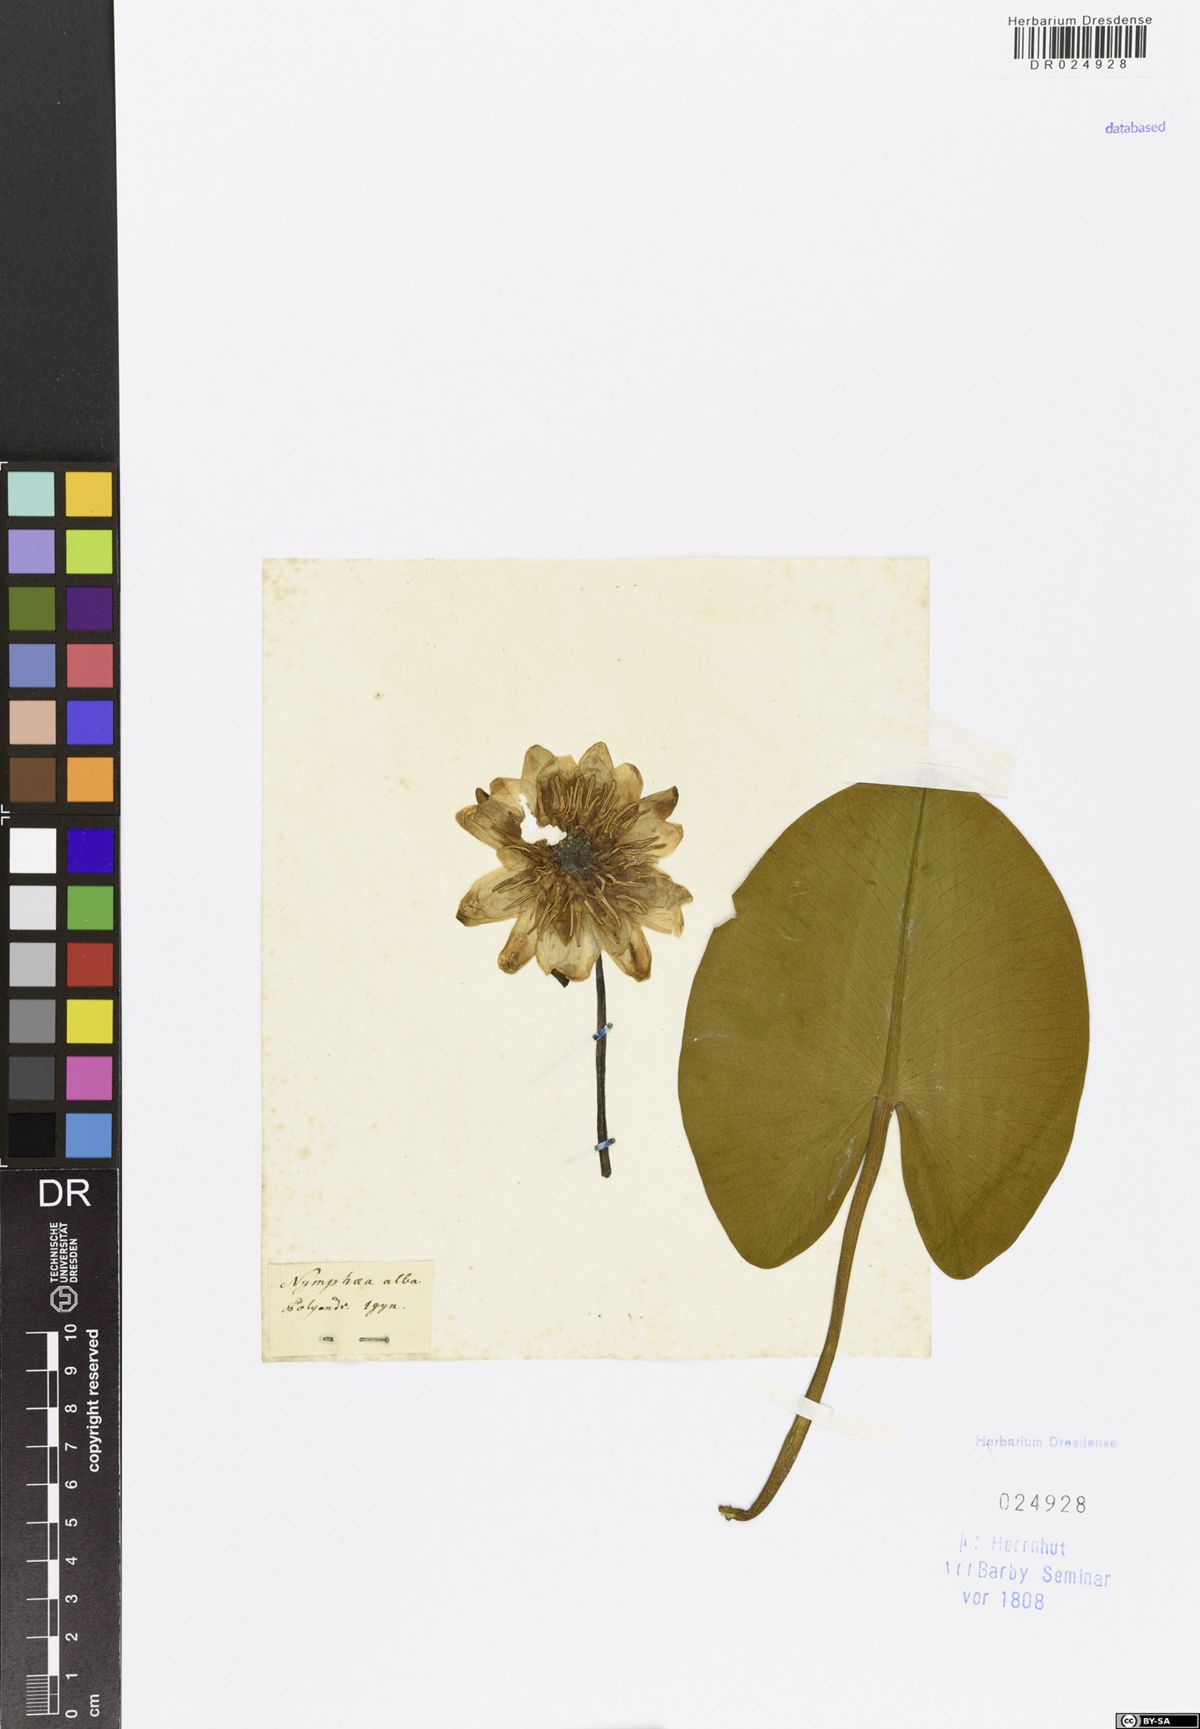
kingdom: Plantae
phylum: Tracheophyta
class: Magnoliopsida
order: Nymphaeales
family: Nymphaeaceae
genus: Nymphaea
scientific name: Nymphaea alba
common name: White water-lily
